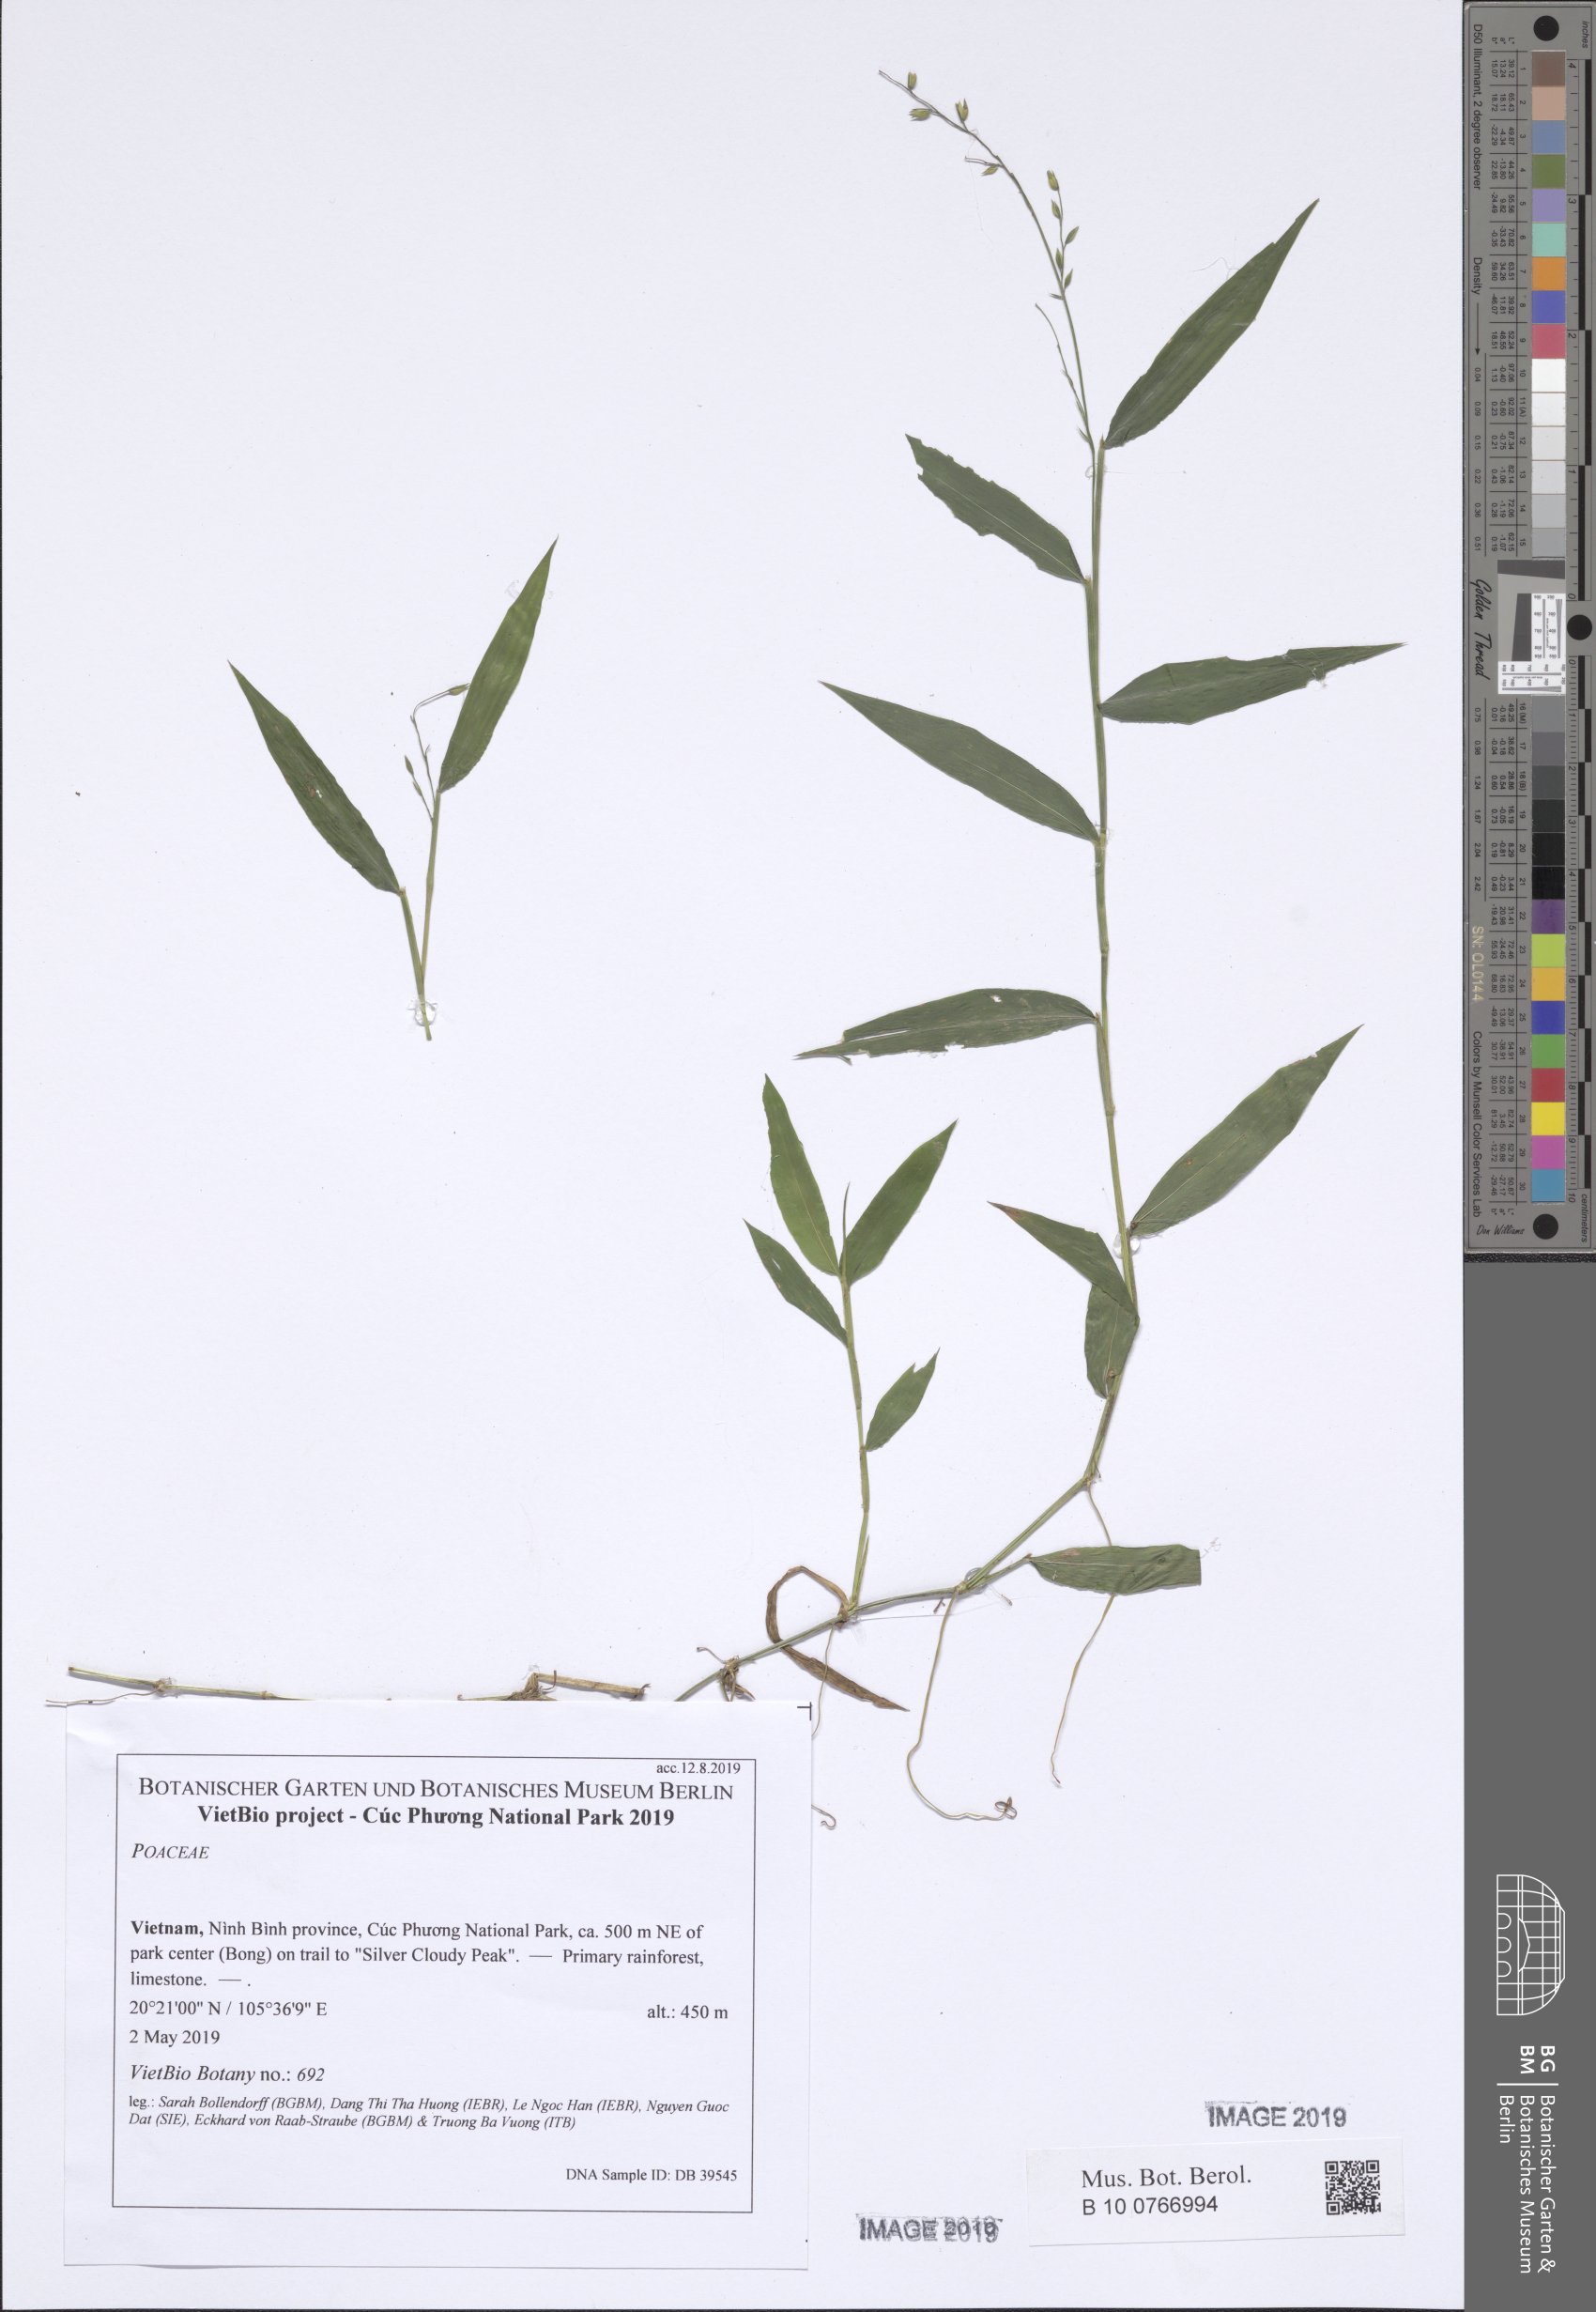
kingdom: Plantae
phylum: Tracheophyta
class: Liliopsida
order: Poales
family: Poaceae
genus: Acroceras
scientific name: Acroceras zizanioides
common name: Oat grass
